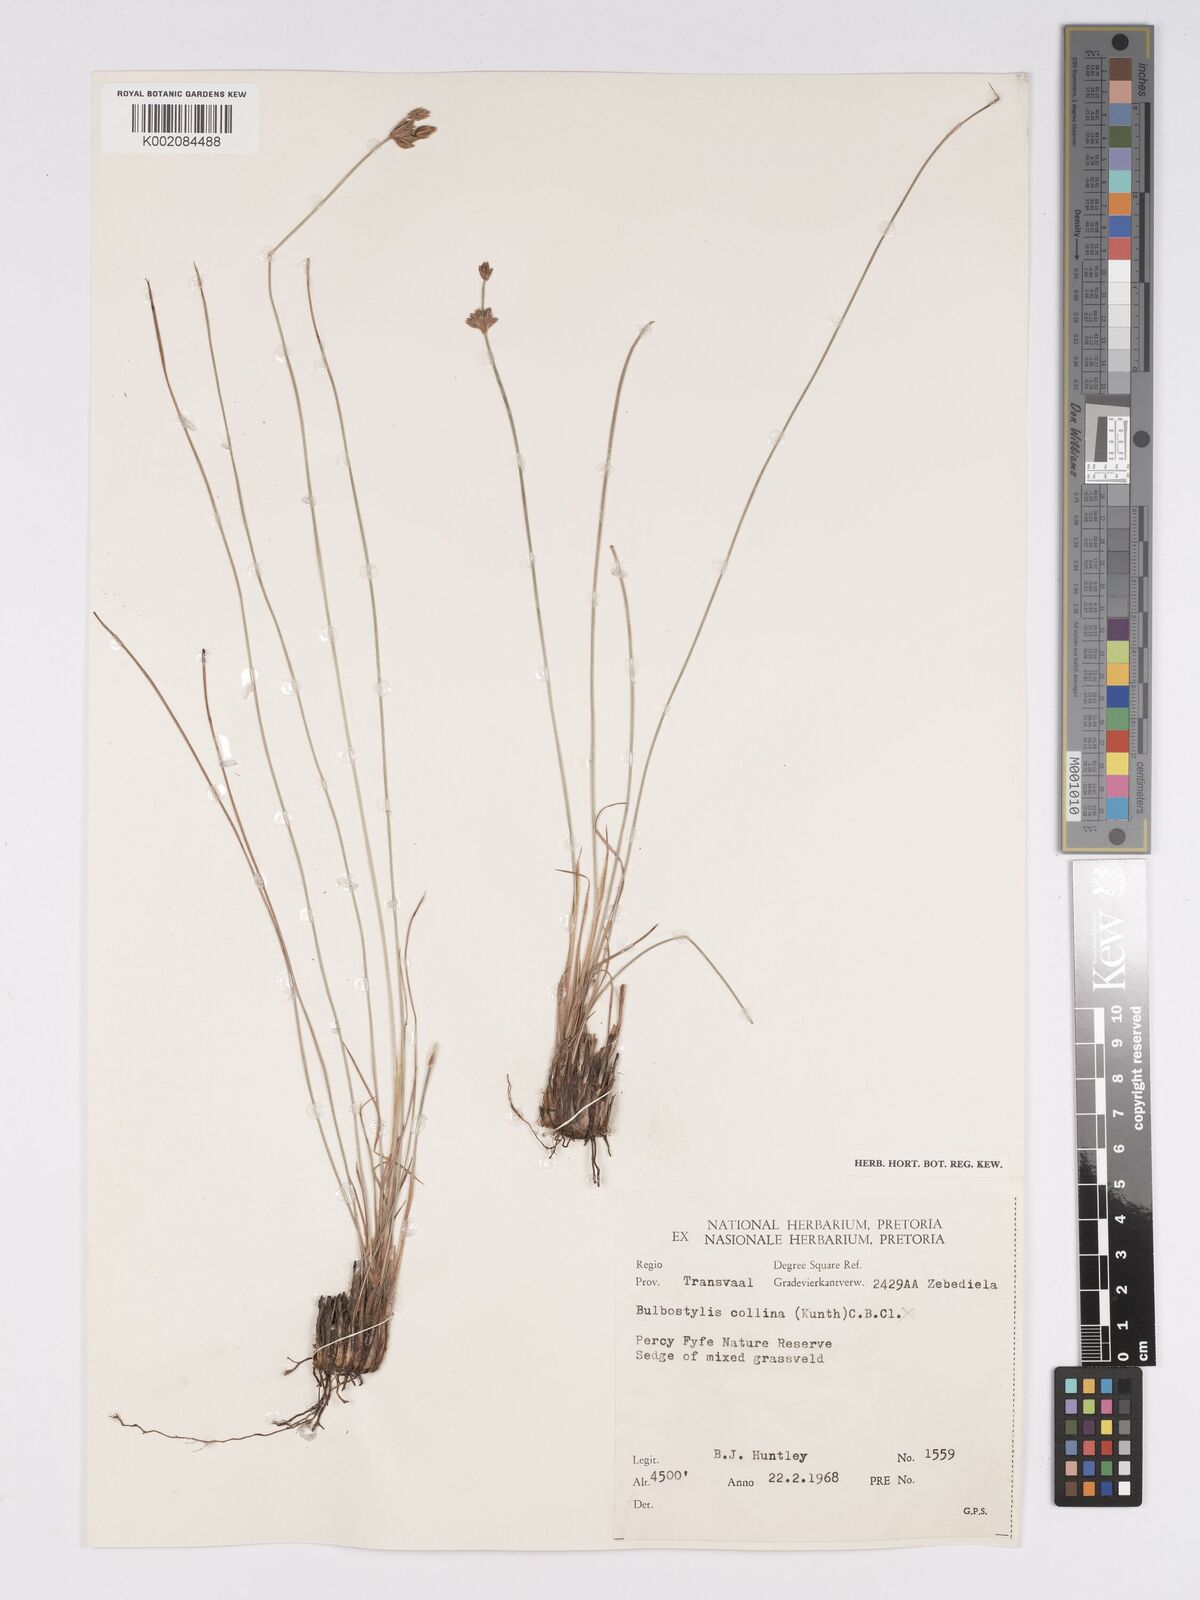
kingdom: Plantae
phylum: Tracheophyta
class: Liliopsida
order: Poales
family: Cyperaceae
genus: Bulbostylis
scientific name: Bulbostylis boeckeleriana
